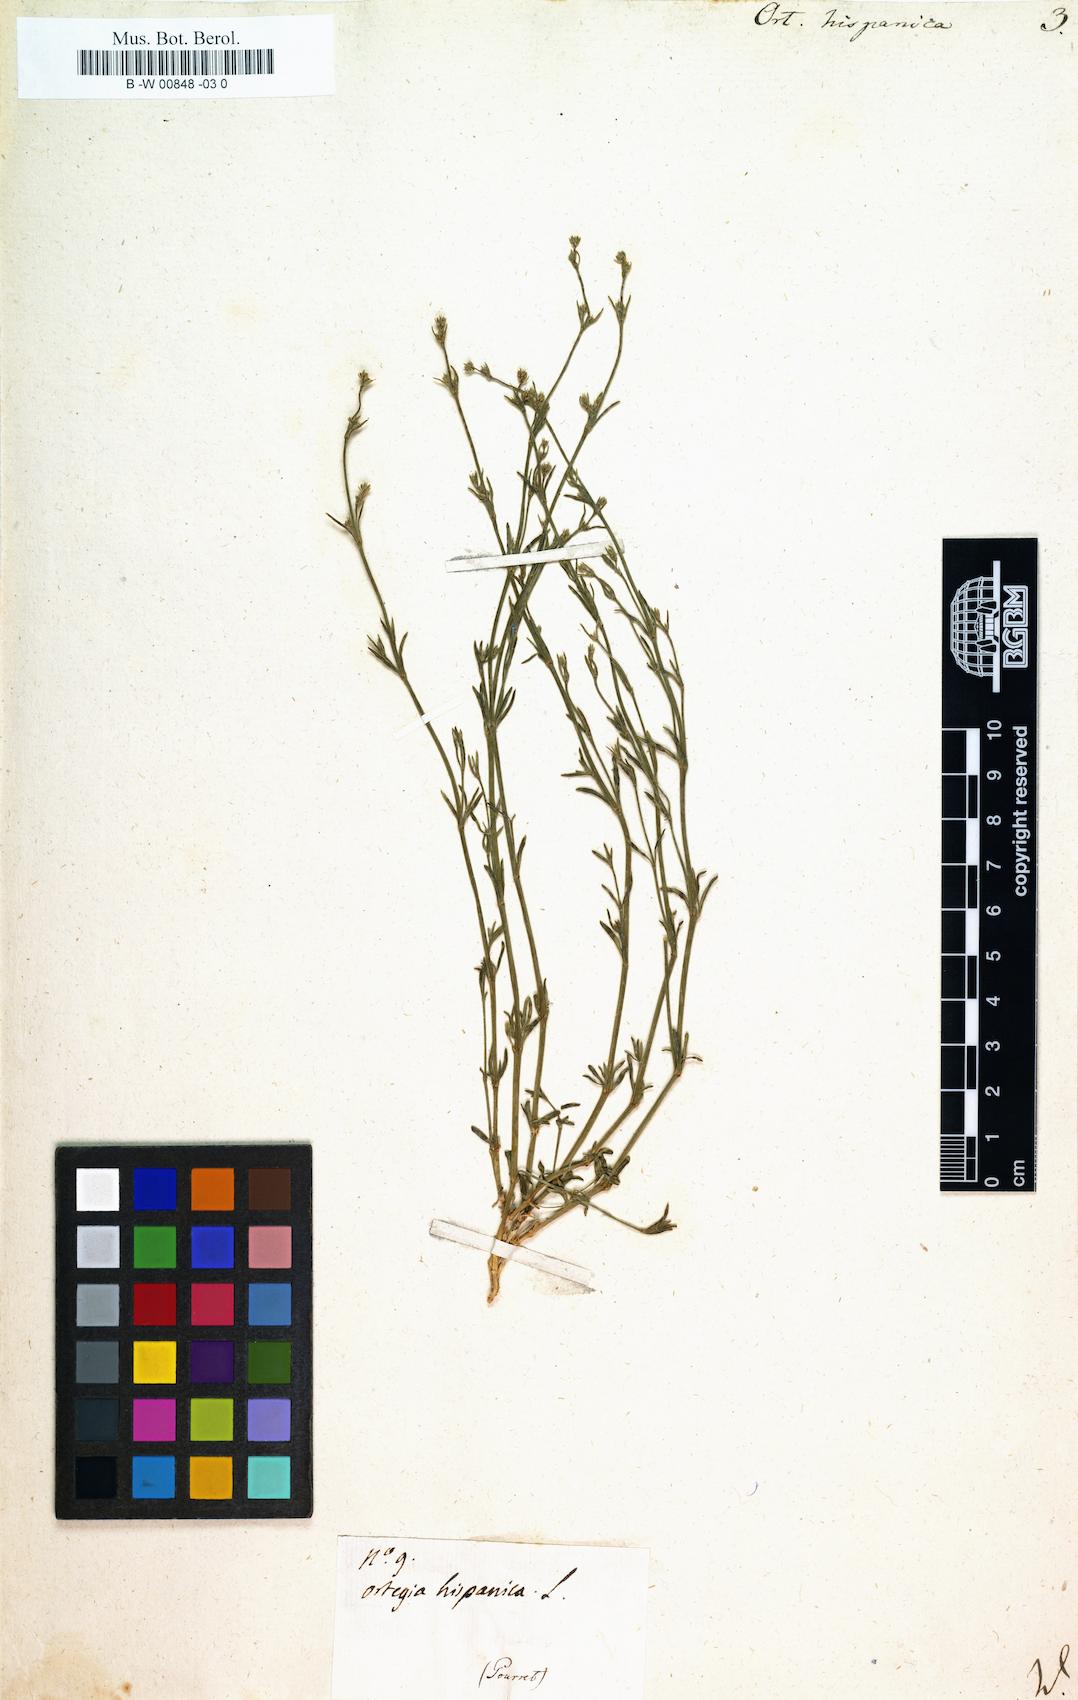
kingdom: Plantae
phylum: Tracheophyta
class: Magnoliopsida
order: Caryophyllales
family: Caryophyllaceae
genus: Ortegia
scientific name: Ortegia hispanica
